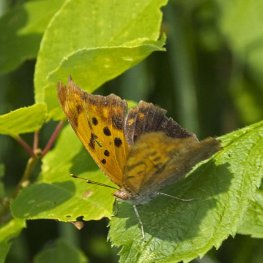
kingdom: Animalia
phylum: Arthropoda
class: Insecta
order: Lepidoptera
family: Nymphalidae
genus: Polygonia
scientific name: Polygonia interrogationis
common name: Question Mark
